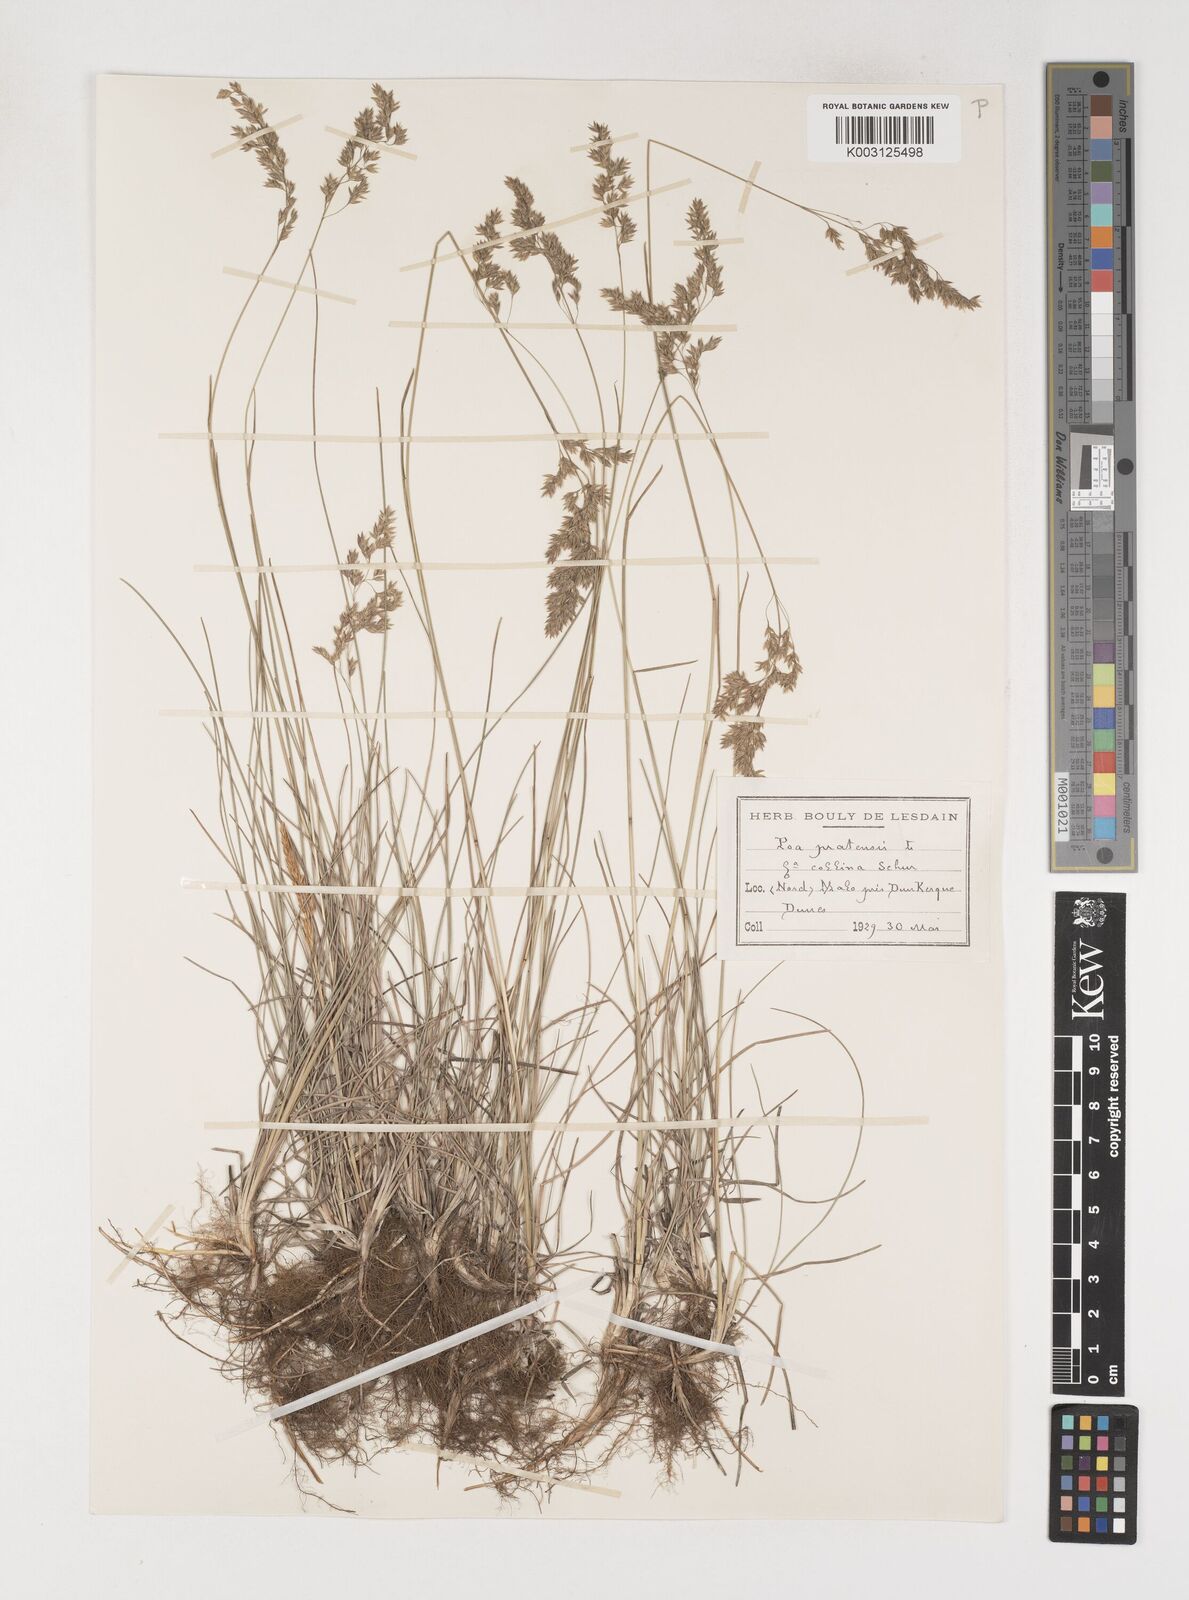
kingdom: Plantae
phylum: Tracheophyta
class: Liliopsida
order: Poales
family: Poaceae
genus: Poa
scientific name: Poa angustifolia
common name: Narrow-leaved meadow-grass
